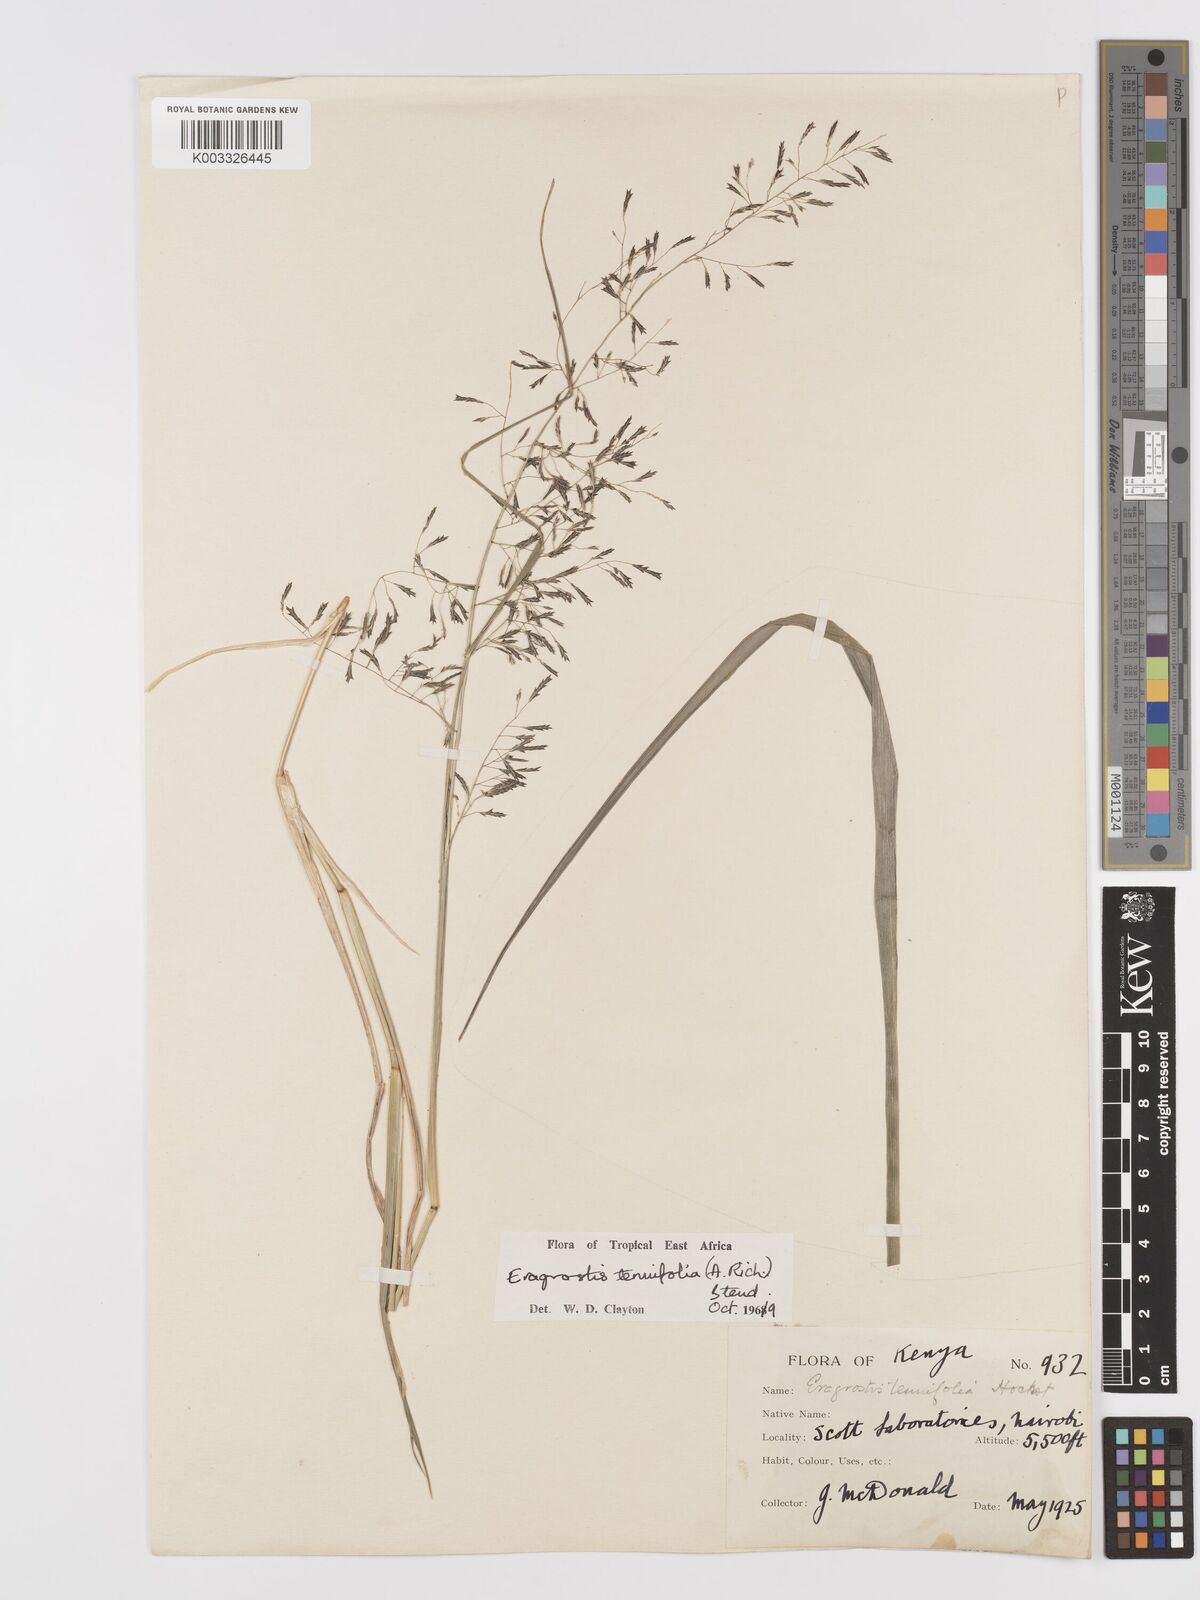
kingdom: Plantae
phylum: Tracheophyta
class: Liliopsida
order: Poales
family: Poaceae
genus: Eragrostis
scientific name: Eragrostis tenuifolia
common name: Elastic grass
